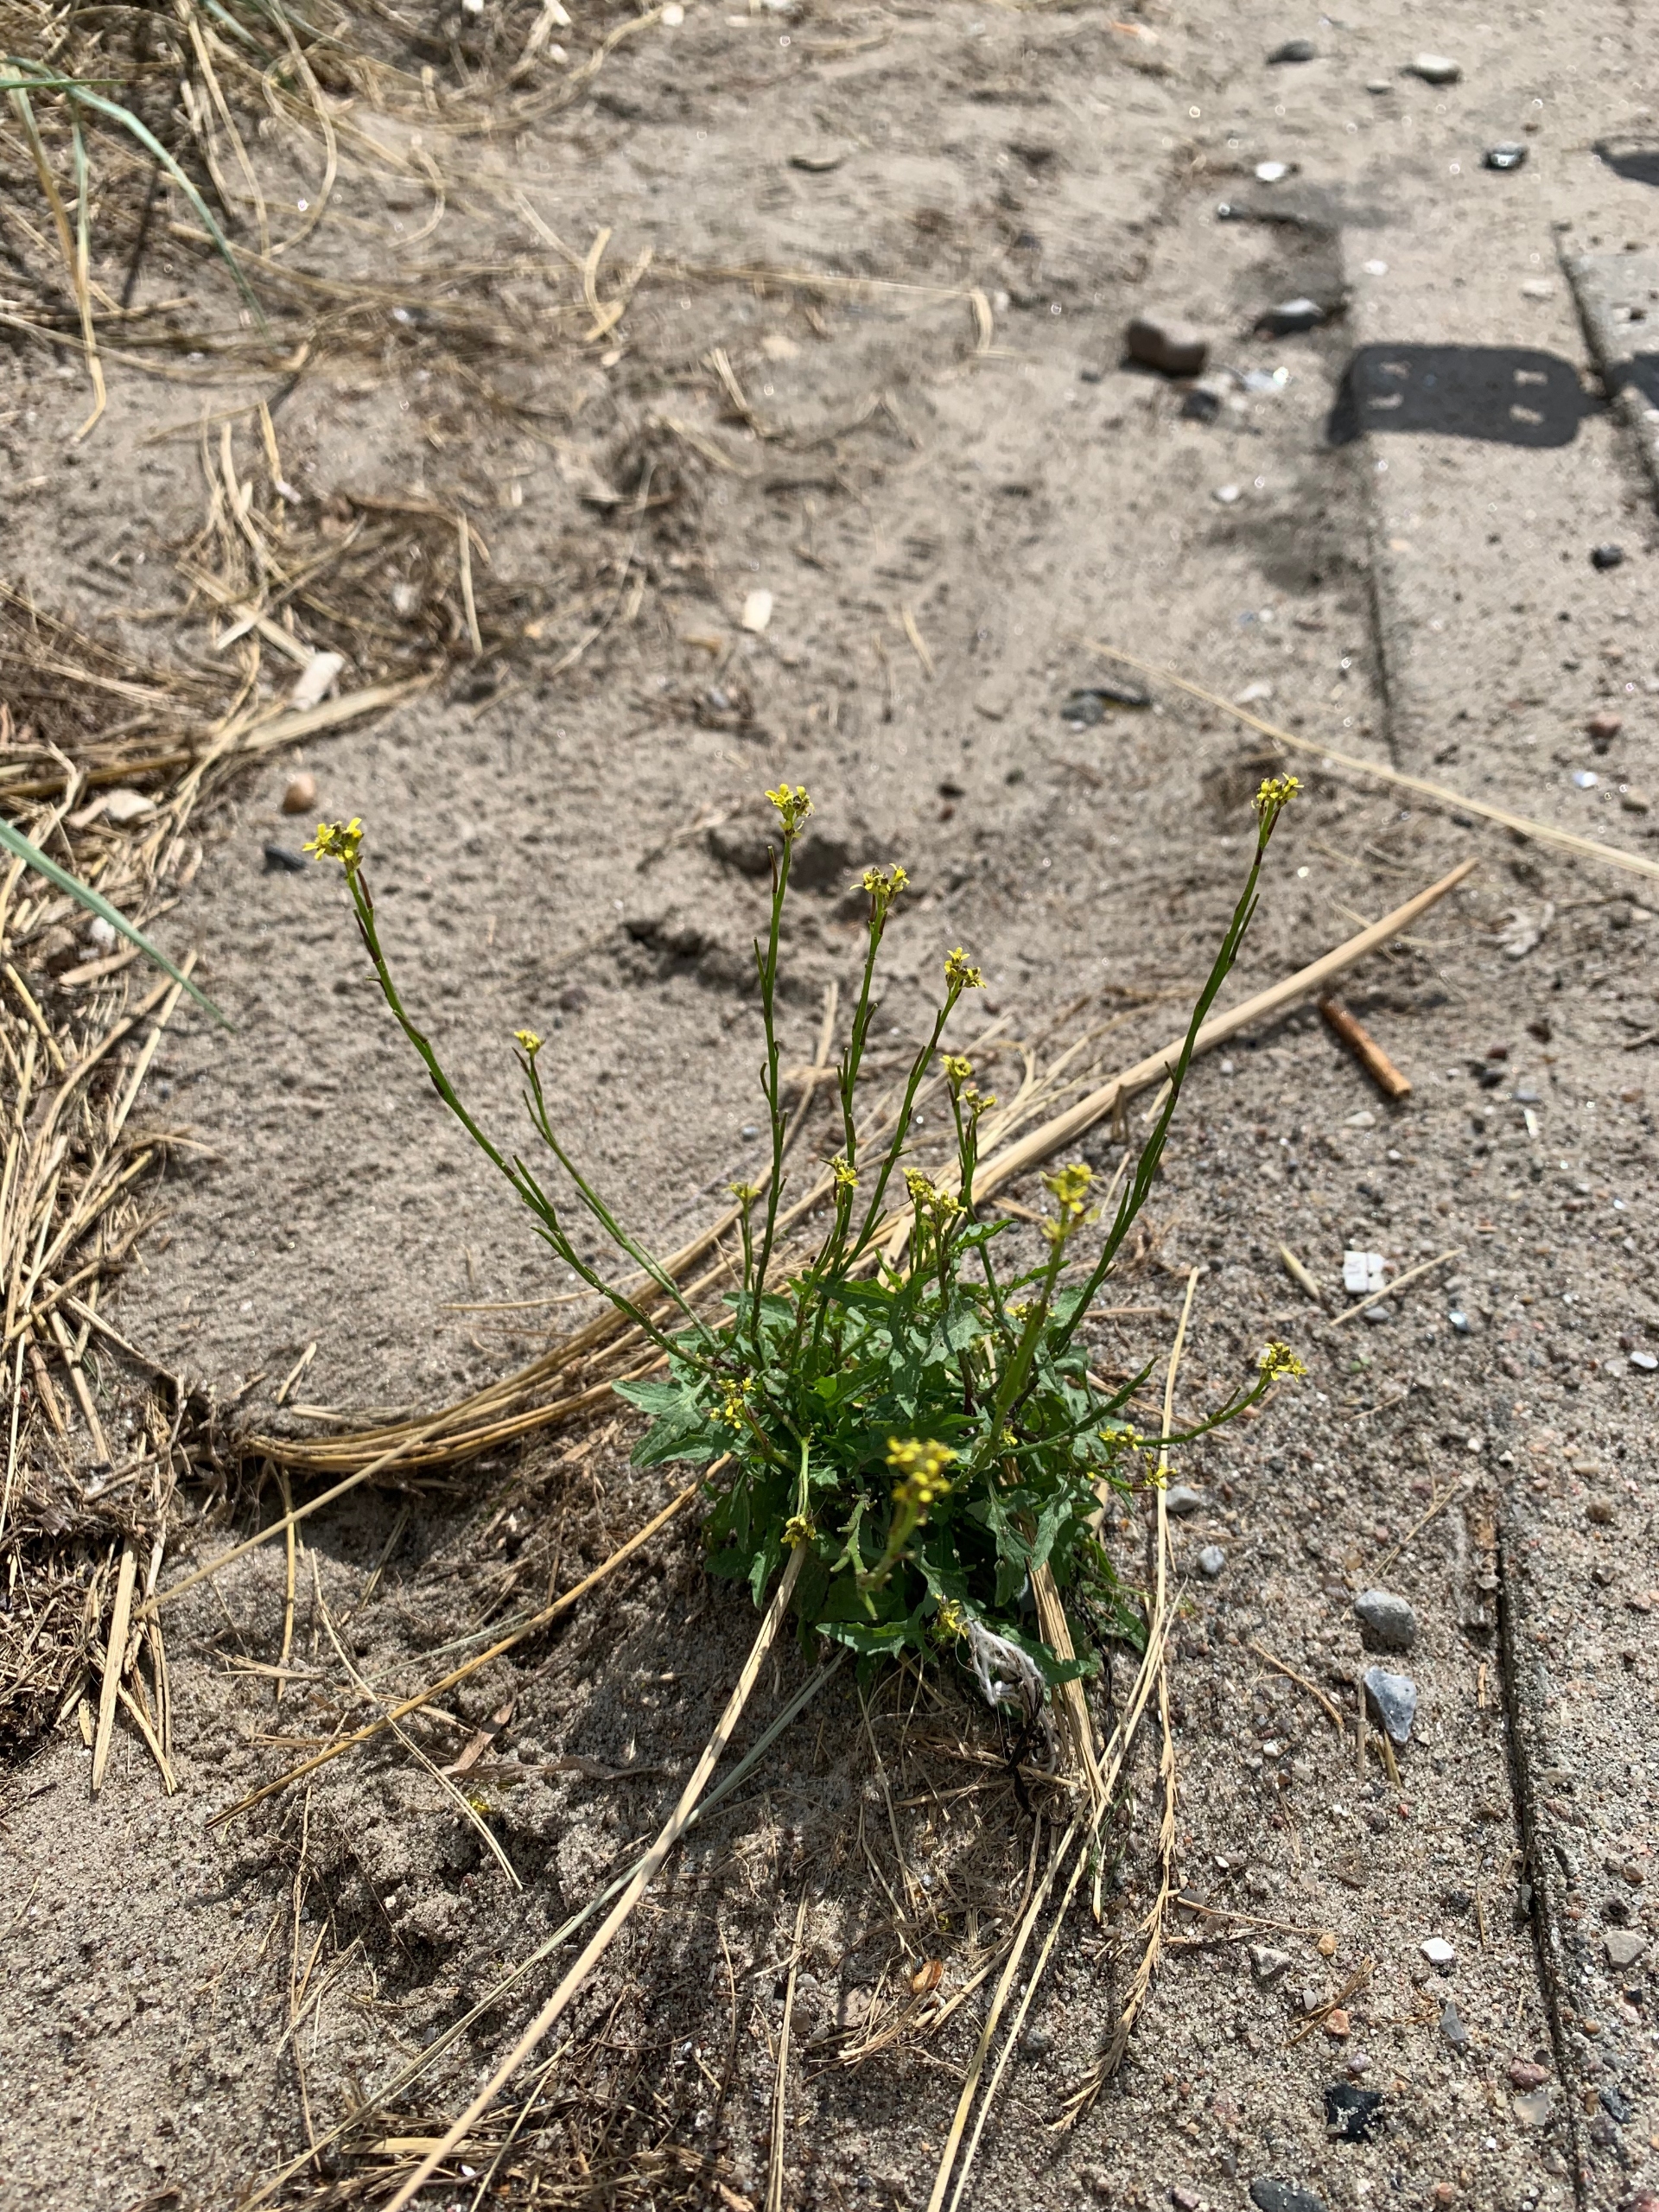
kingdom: Plantae
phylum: Tracheophyta
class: Magnoliopsida
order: Brassicales
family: Brassicaceae
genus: Sisymbrium
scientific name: Sisymbrium officinale
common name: Rank vejsennep
